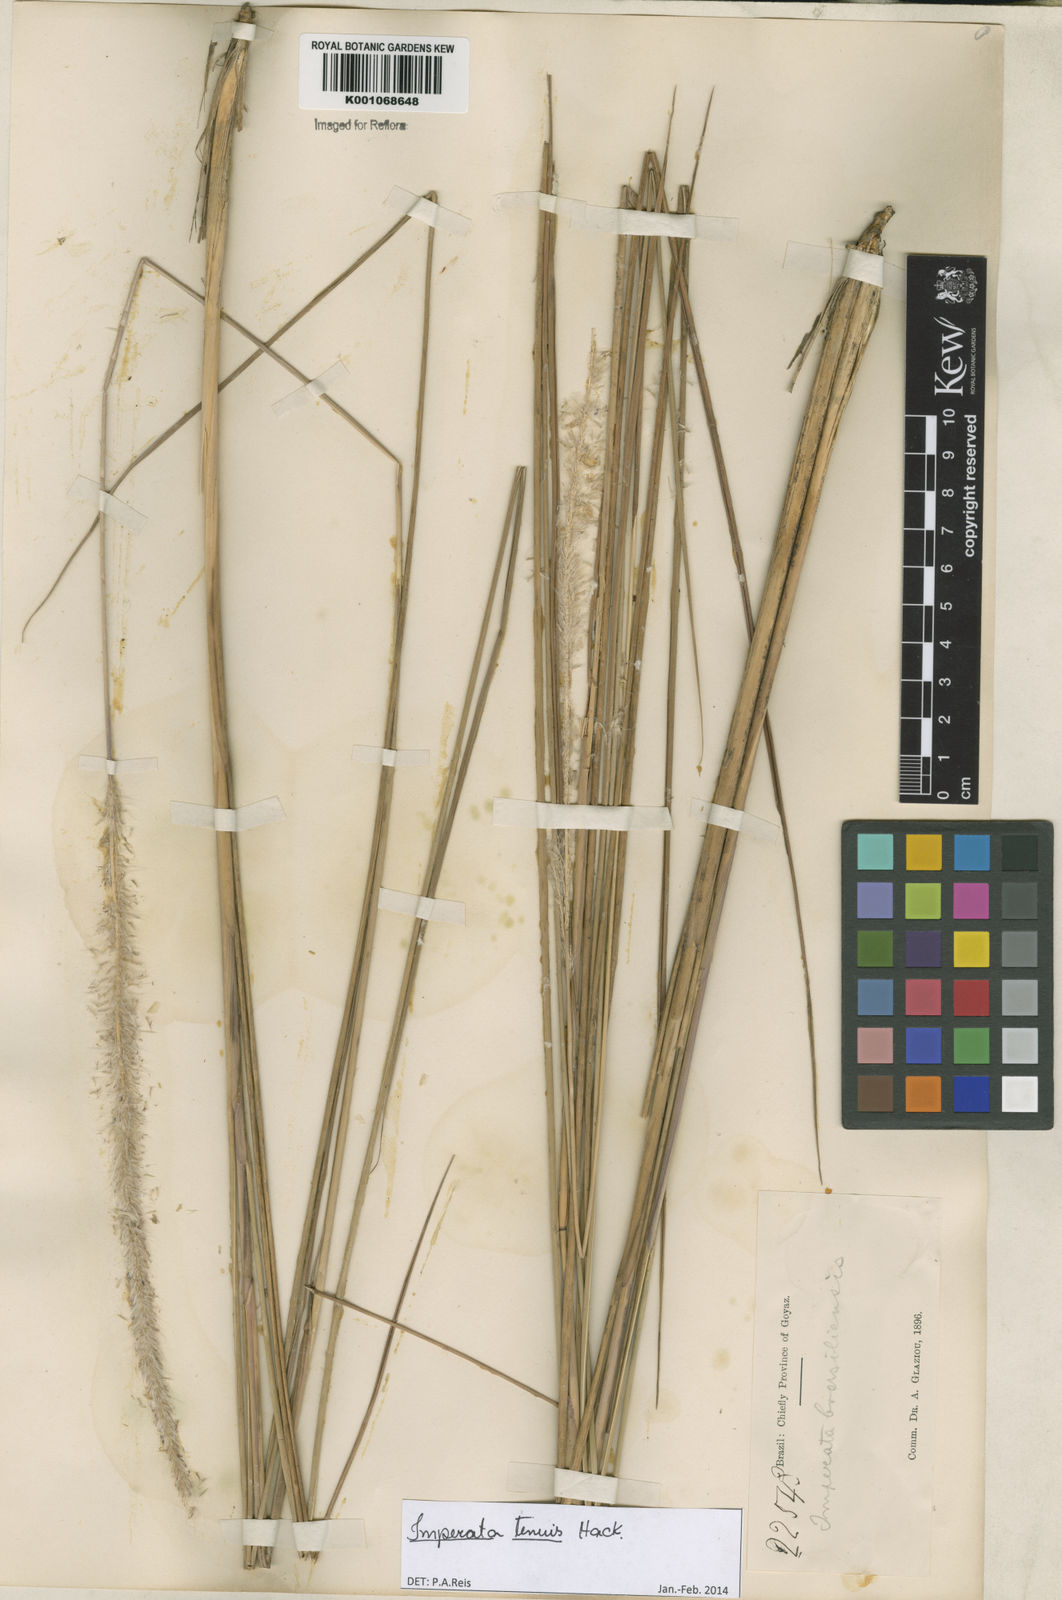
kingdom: Plantae
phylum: Tracheophyta
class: Liliopsida
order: Poales
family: Poaceae
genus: Imperata
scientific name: Imperata tenuis
